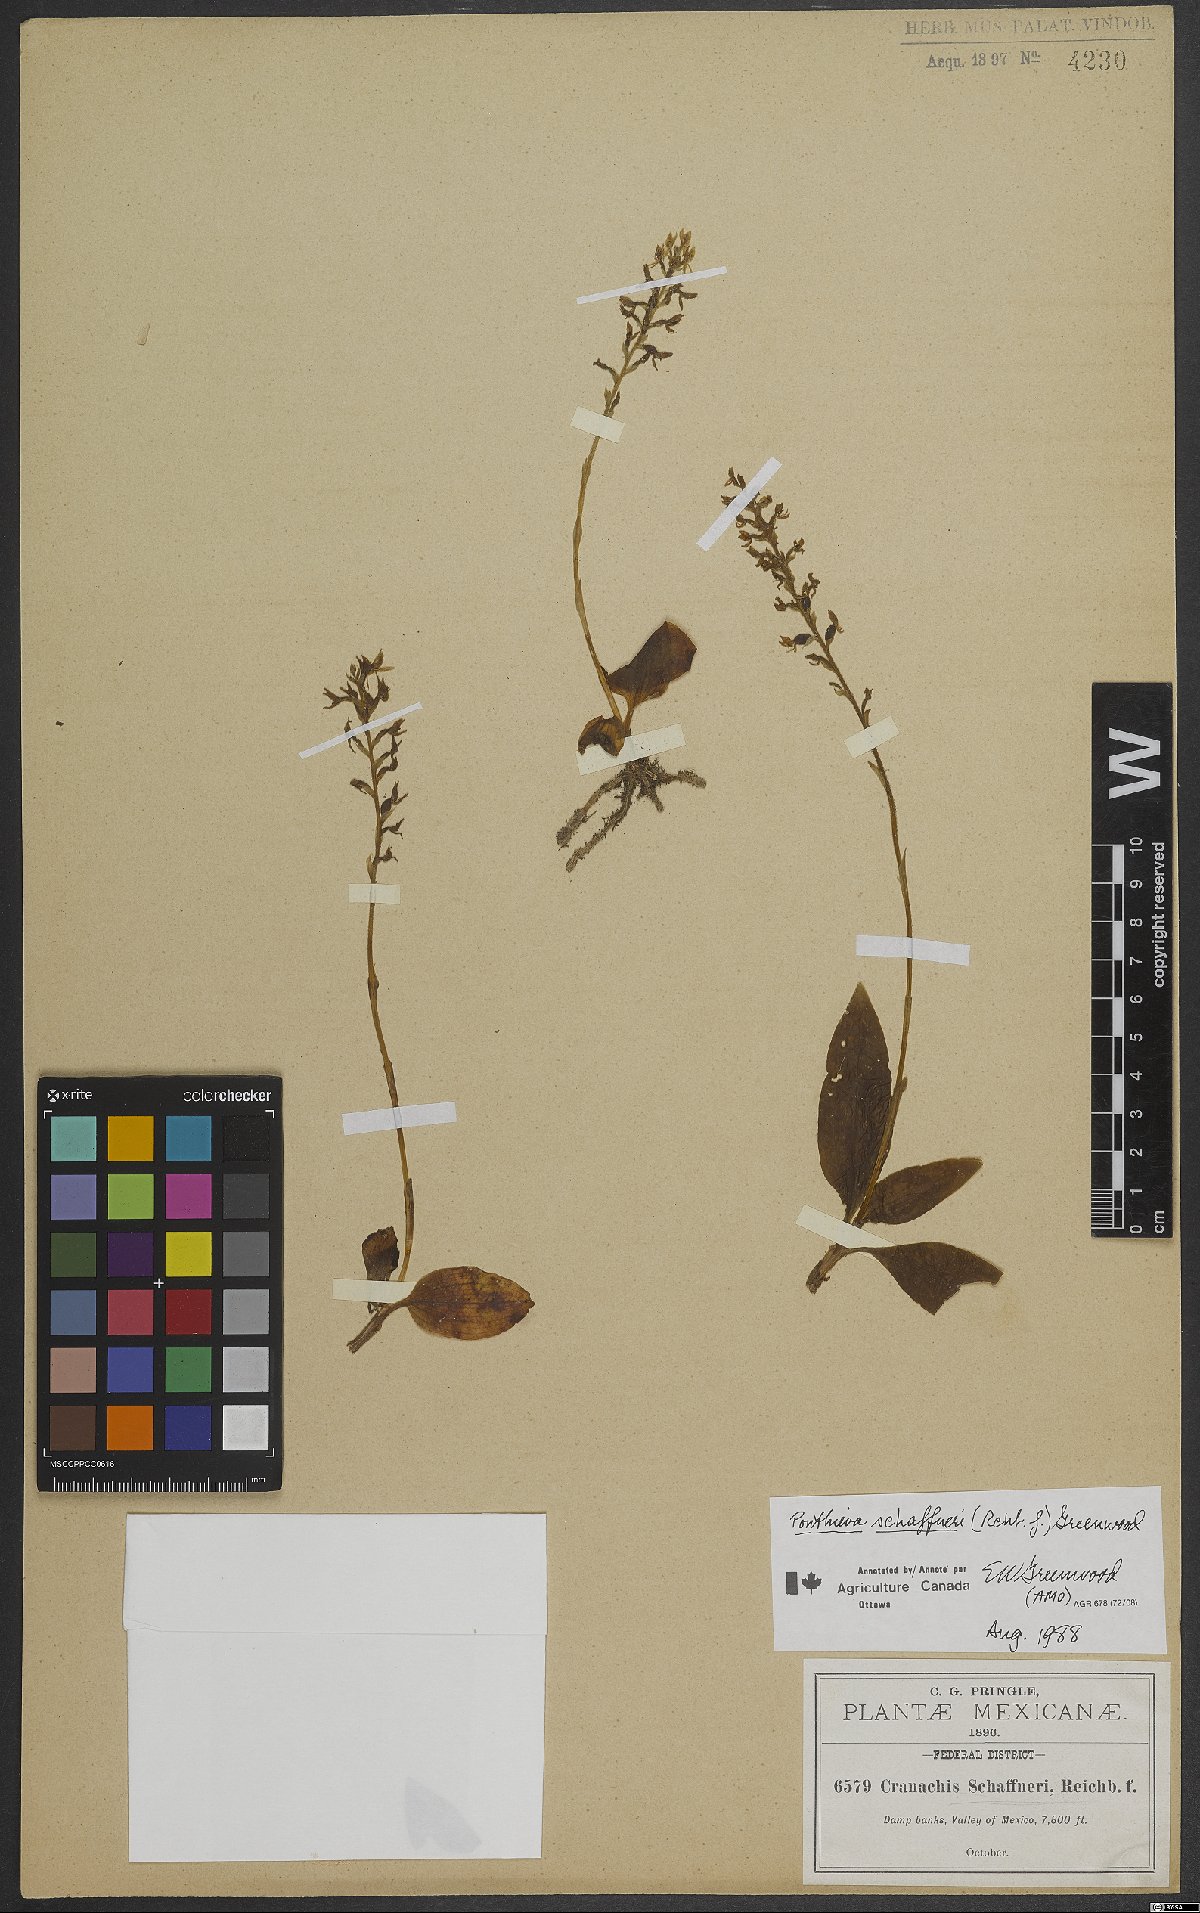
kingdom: Plantae
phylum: Tracheophyta
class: Liliopsida
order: Asparagales
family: Orchidaceae
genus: Ponthieva
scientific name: Ponthieva schaffneri
